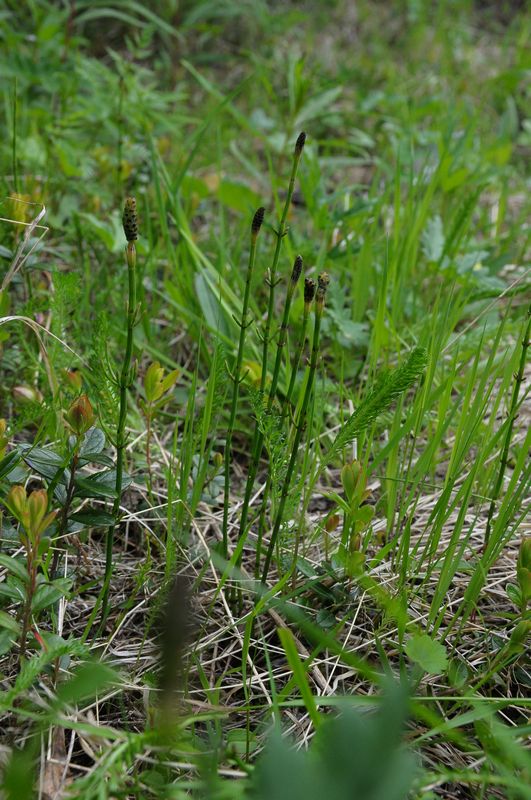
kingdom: Plantae
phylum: Tracheophyta
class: Polypodiopsida
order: Equisetales
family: Equisetaceae
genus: Equisetum
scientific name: Equisetum palustre
